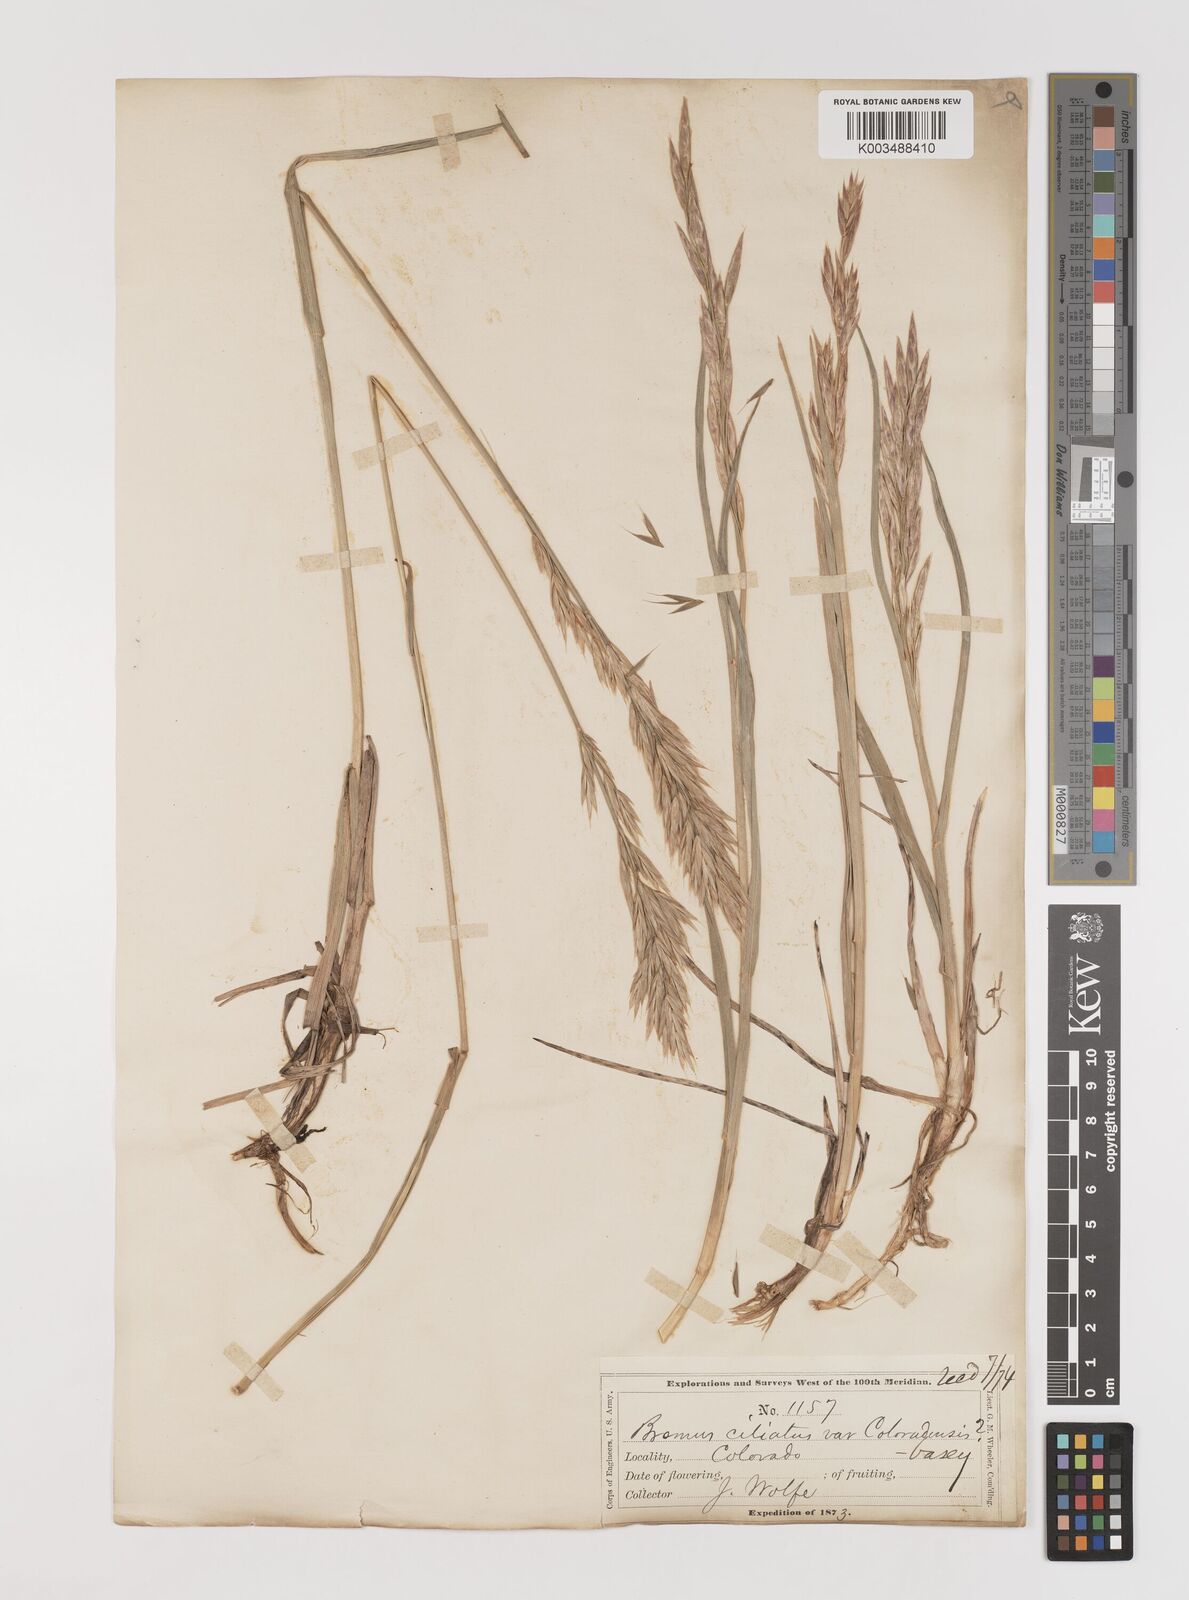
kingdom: Plantae
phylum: Tracheophyta
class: Liliopsida
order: Poales
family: Poaceae
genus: Bromus
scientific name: Bromus ciliatus
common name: Fringe brome
